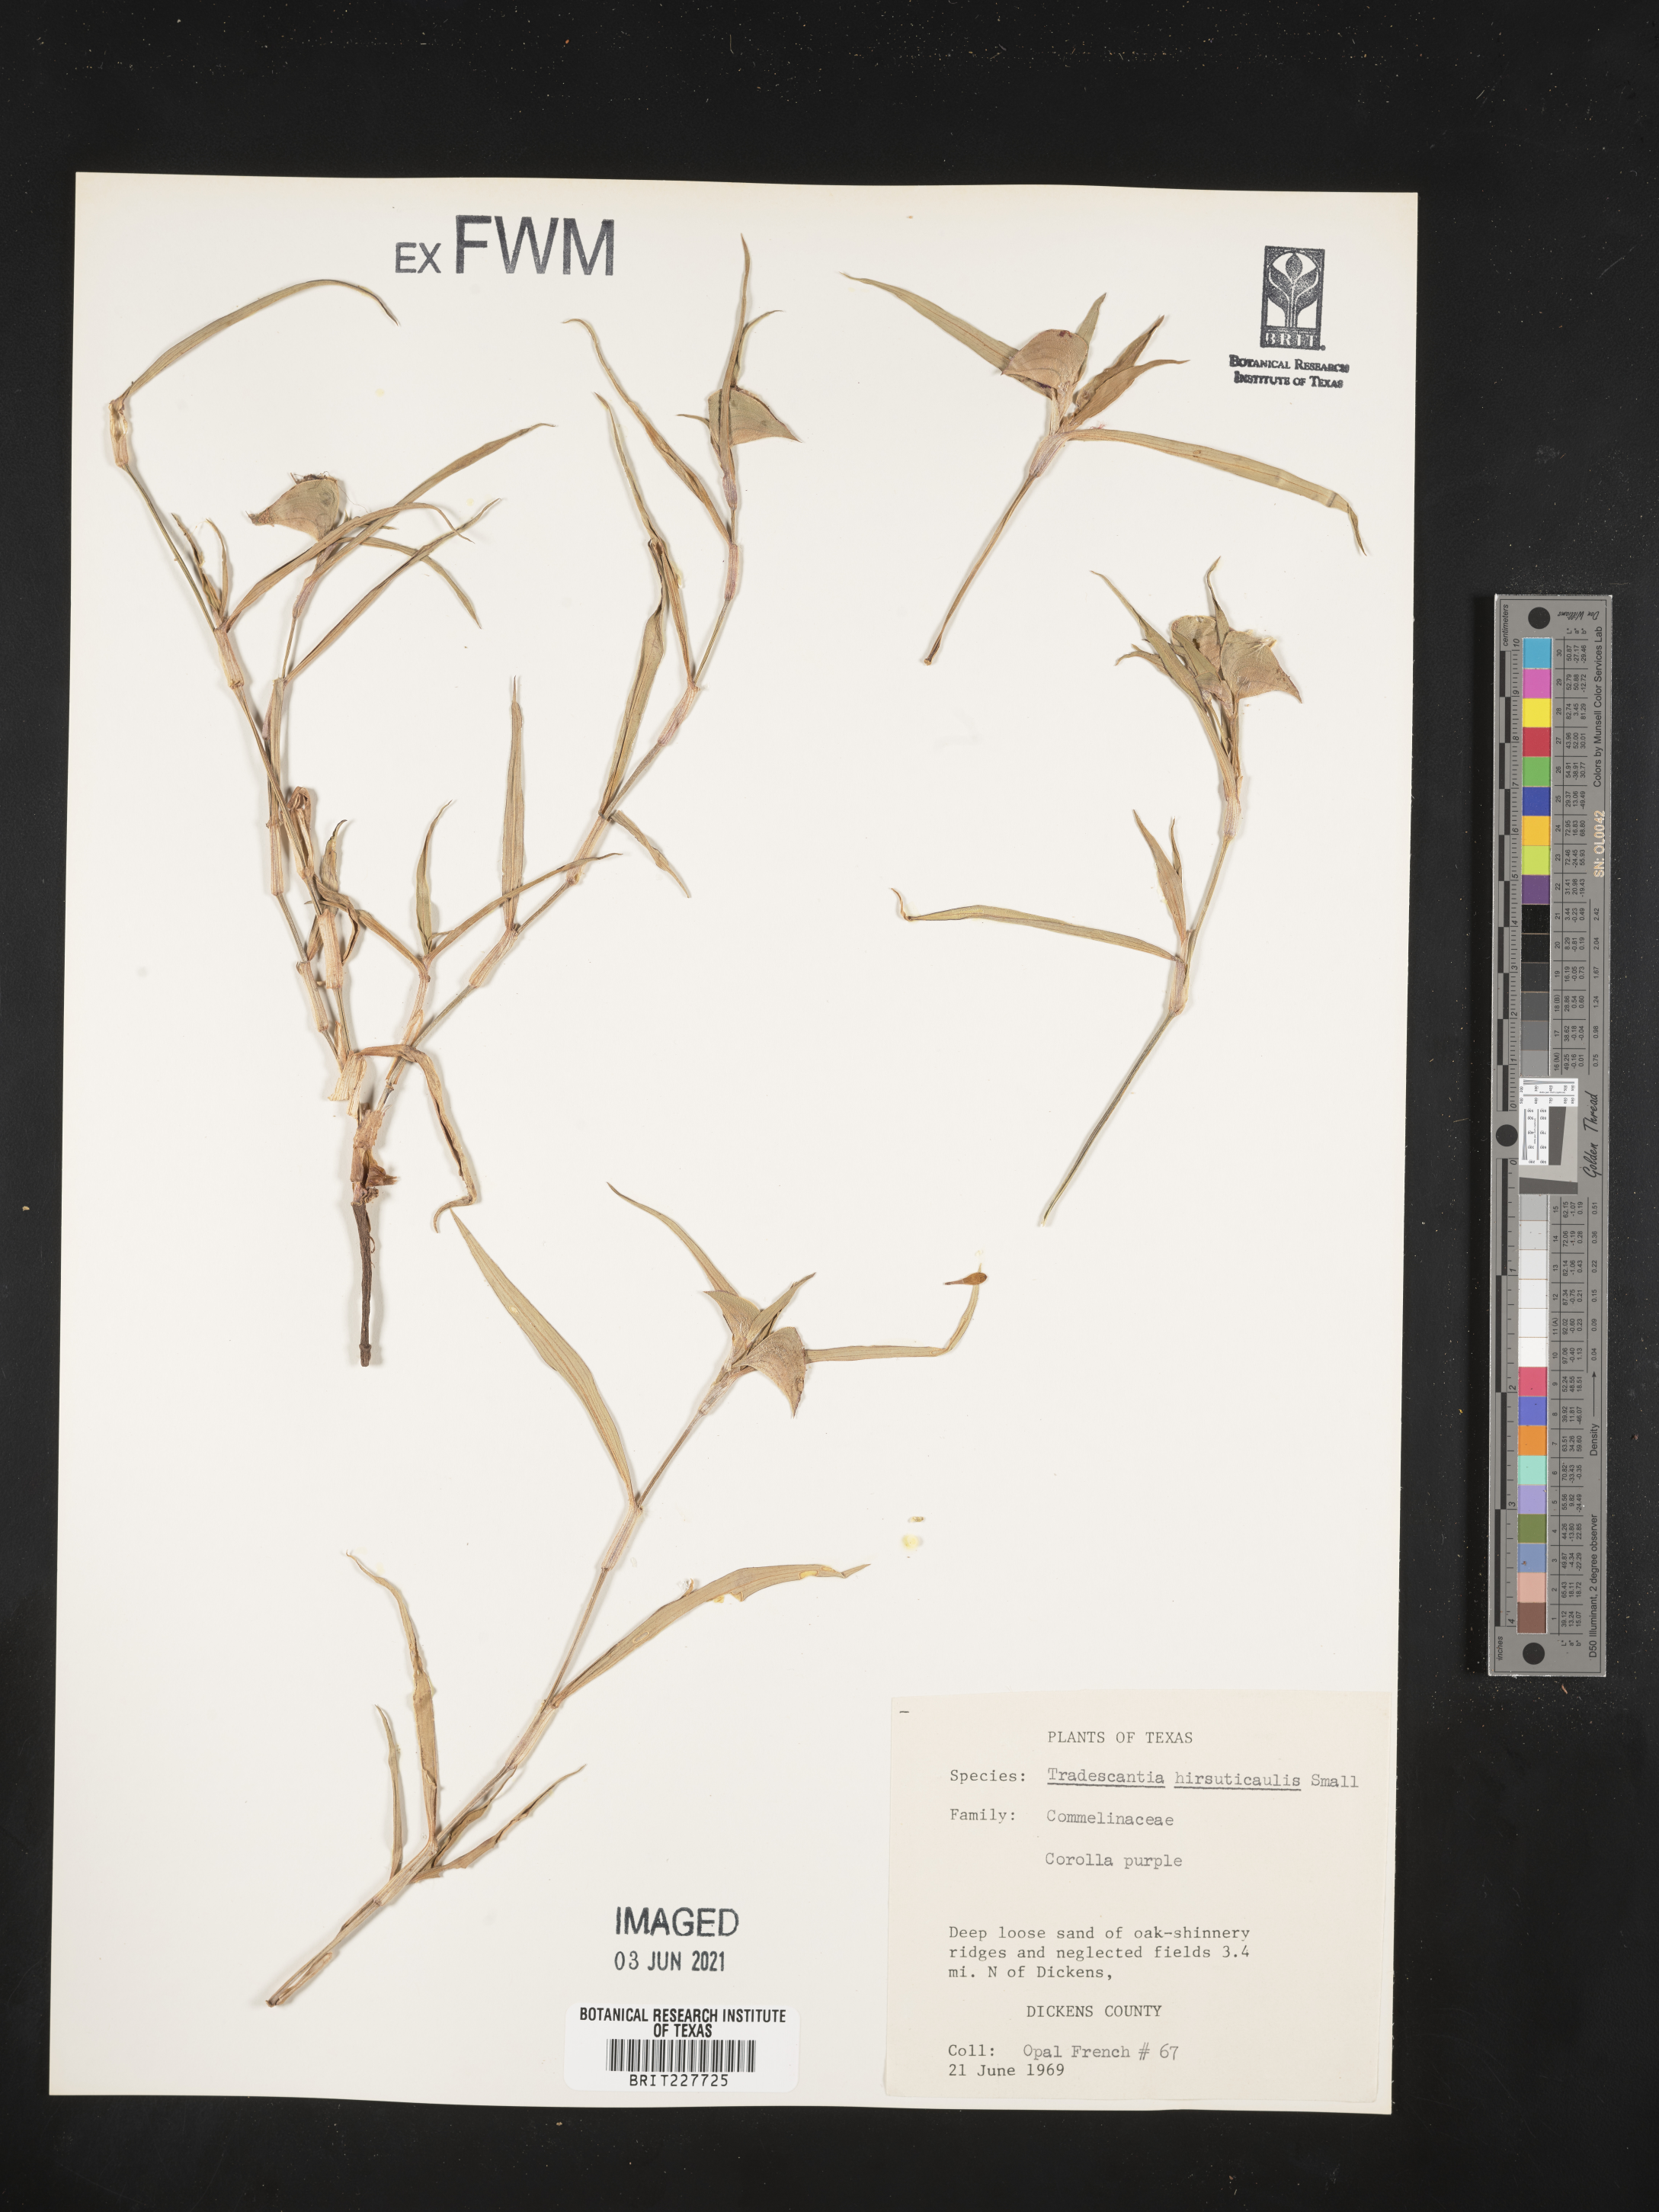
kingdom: Plantae
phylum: Tracheophyta
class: Liliopsida
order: Commelinales
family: Commelinaceae
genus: Tradescantia
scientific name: Tradescantia hirsuticaulis
